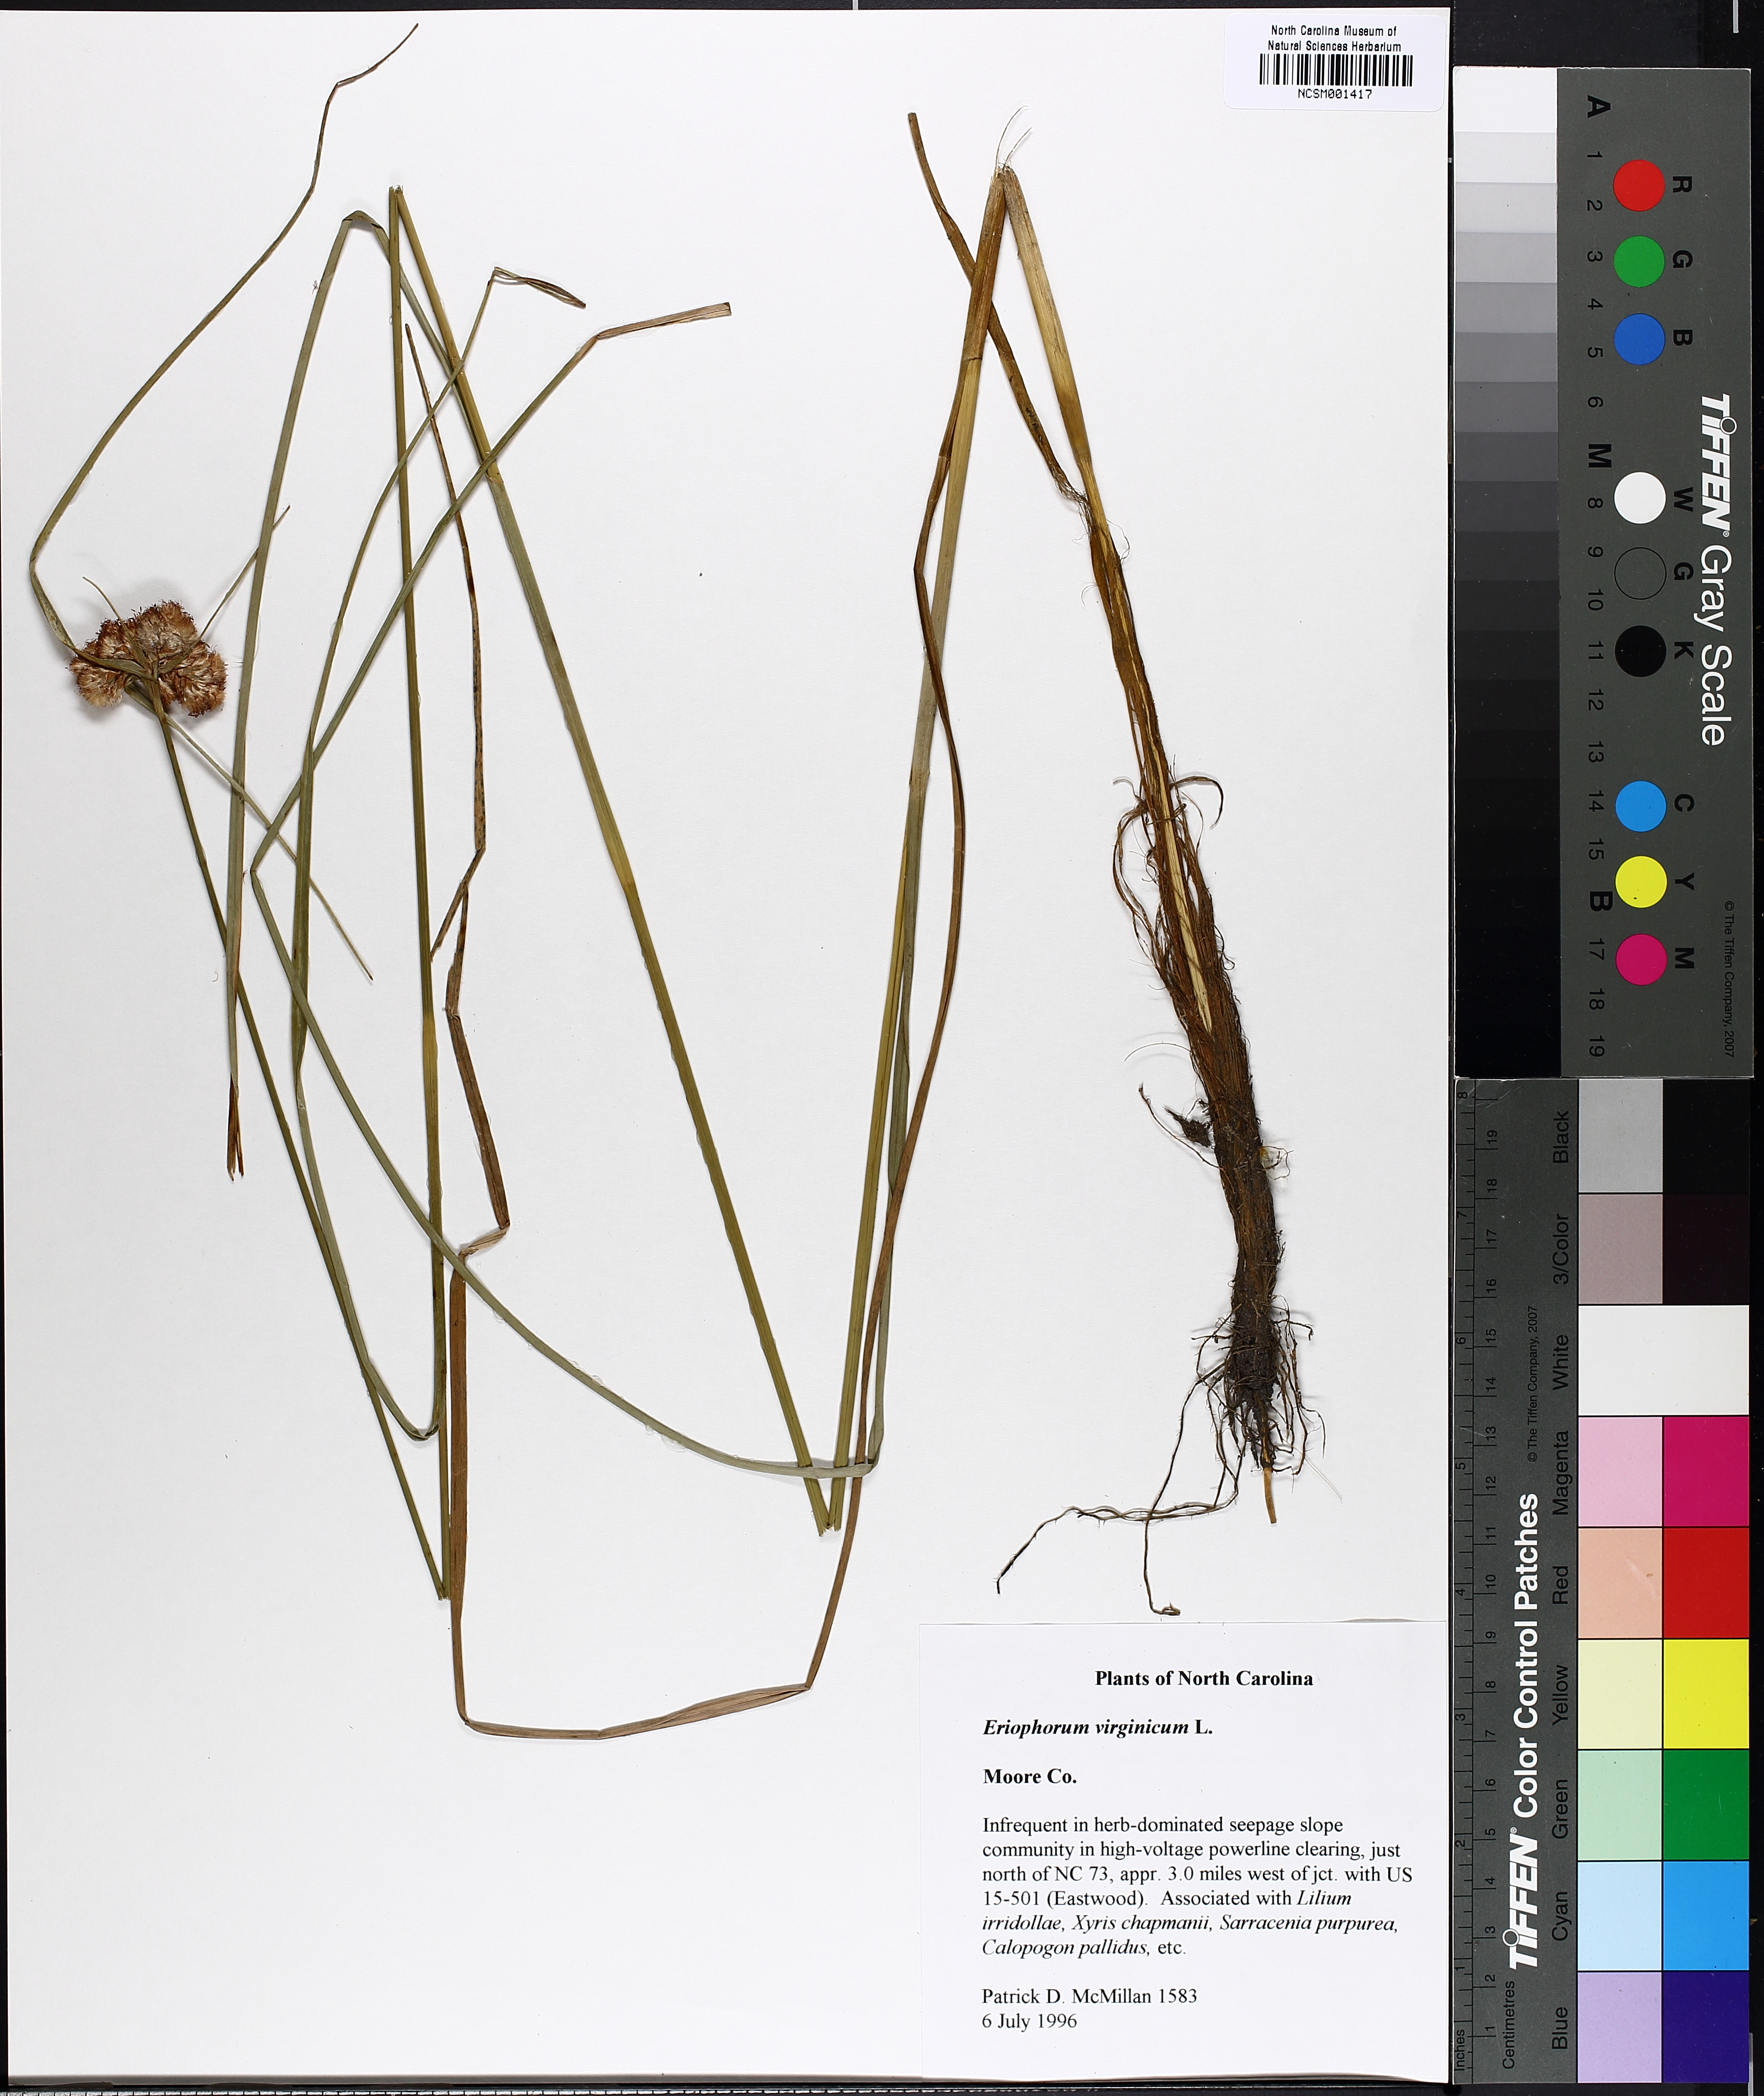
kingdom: Plantae
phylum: Tracheophyta
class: Liliopsida
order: Poales
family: Cyperaceae
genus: Eriophorum
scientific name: Eriophorum virginicum
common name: Tawny cottongrass
